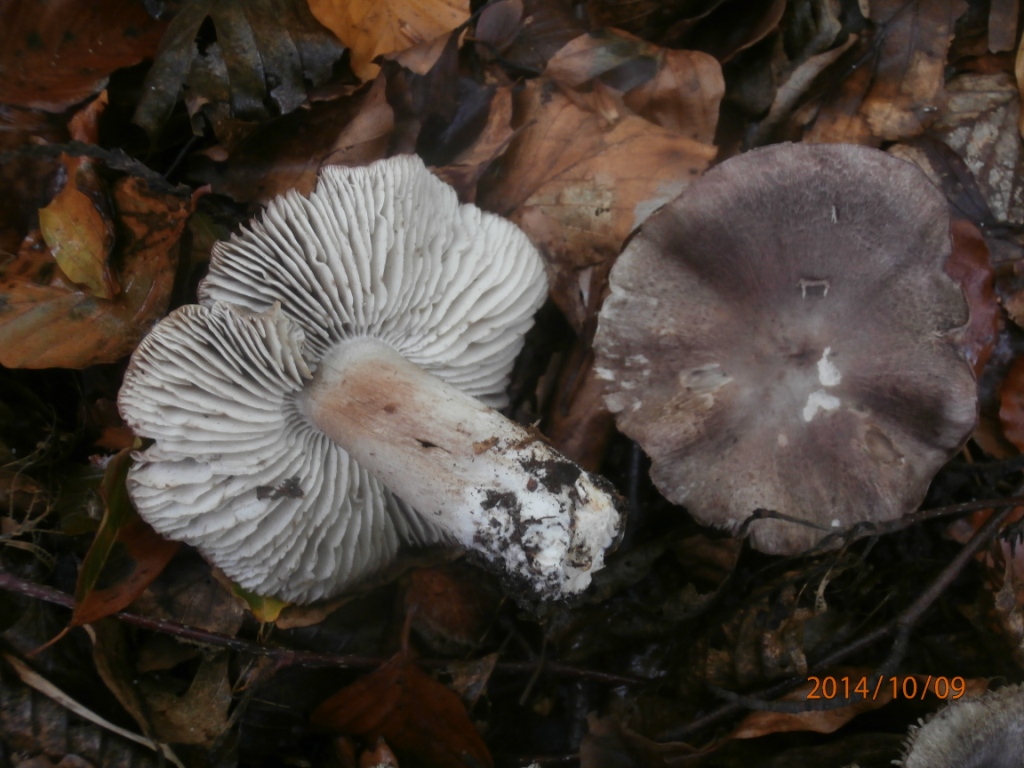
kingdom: Fungi
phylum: Basidiomycota
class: Agaricomycetes
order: Agaricales
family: Tricholomataceae
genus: Tricholoma
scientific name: Tricholoma sciodes
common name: stribet ridderhat
